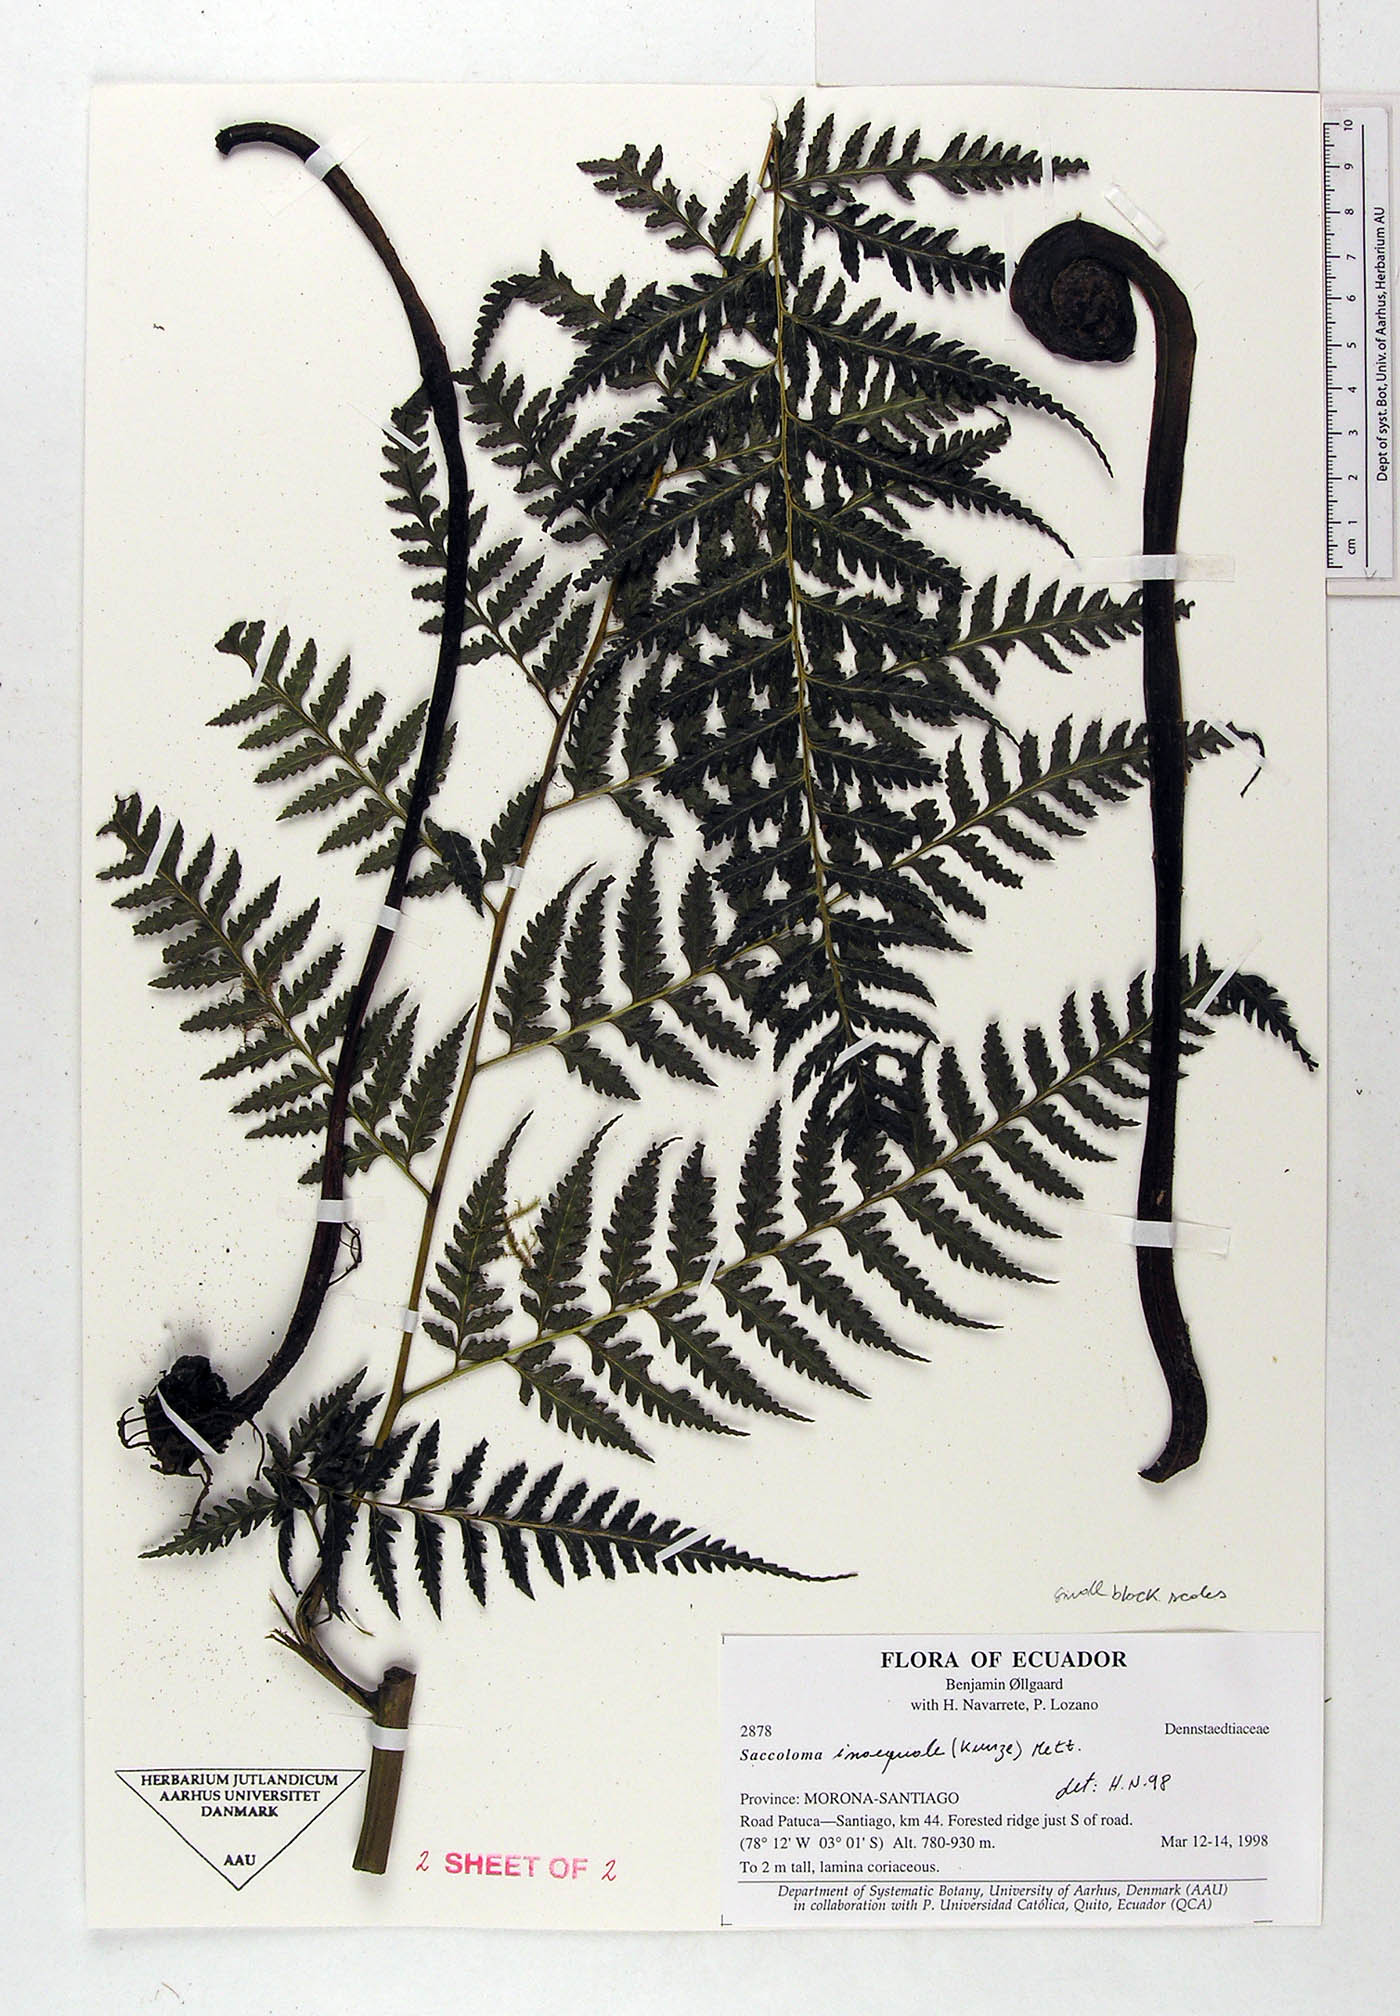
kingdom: Plantae
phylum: Tracheophyta
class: Polypodiopsida
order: Polypodiales
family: Saccolomataceae
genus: Saccoloma
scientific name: Saccoloma inaequale
